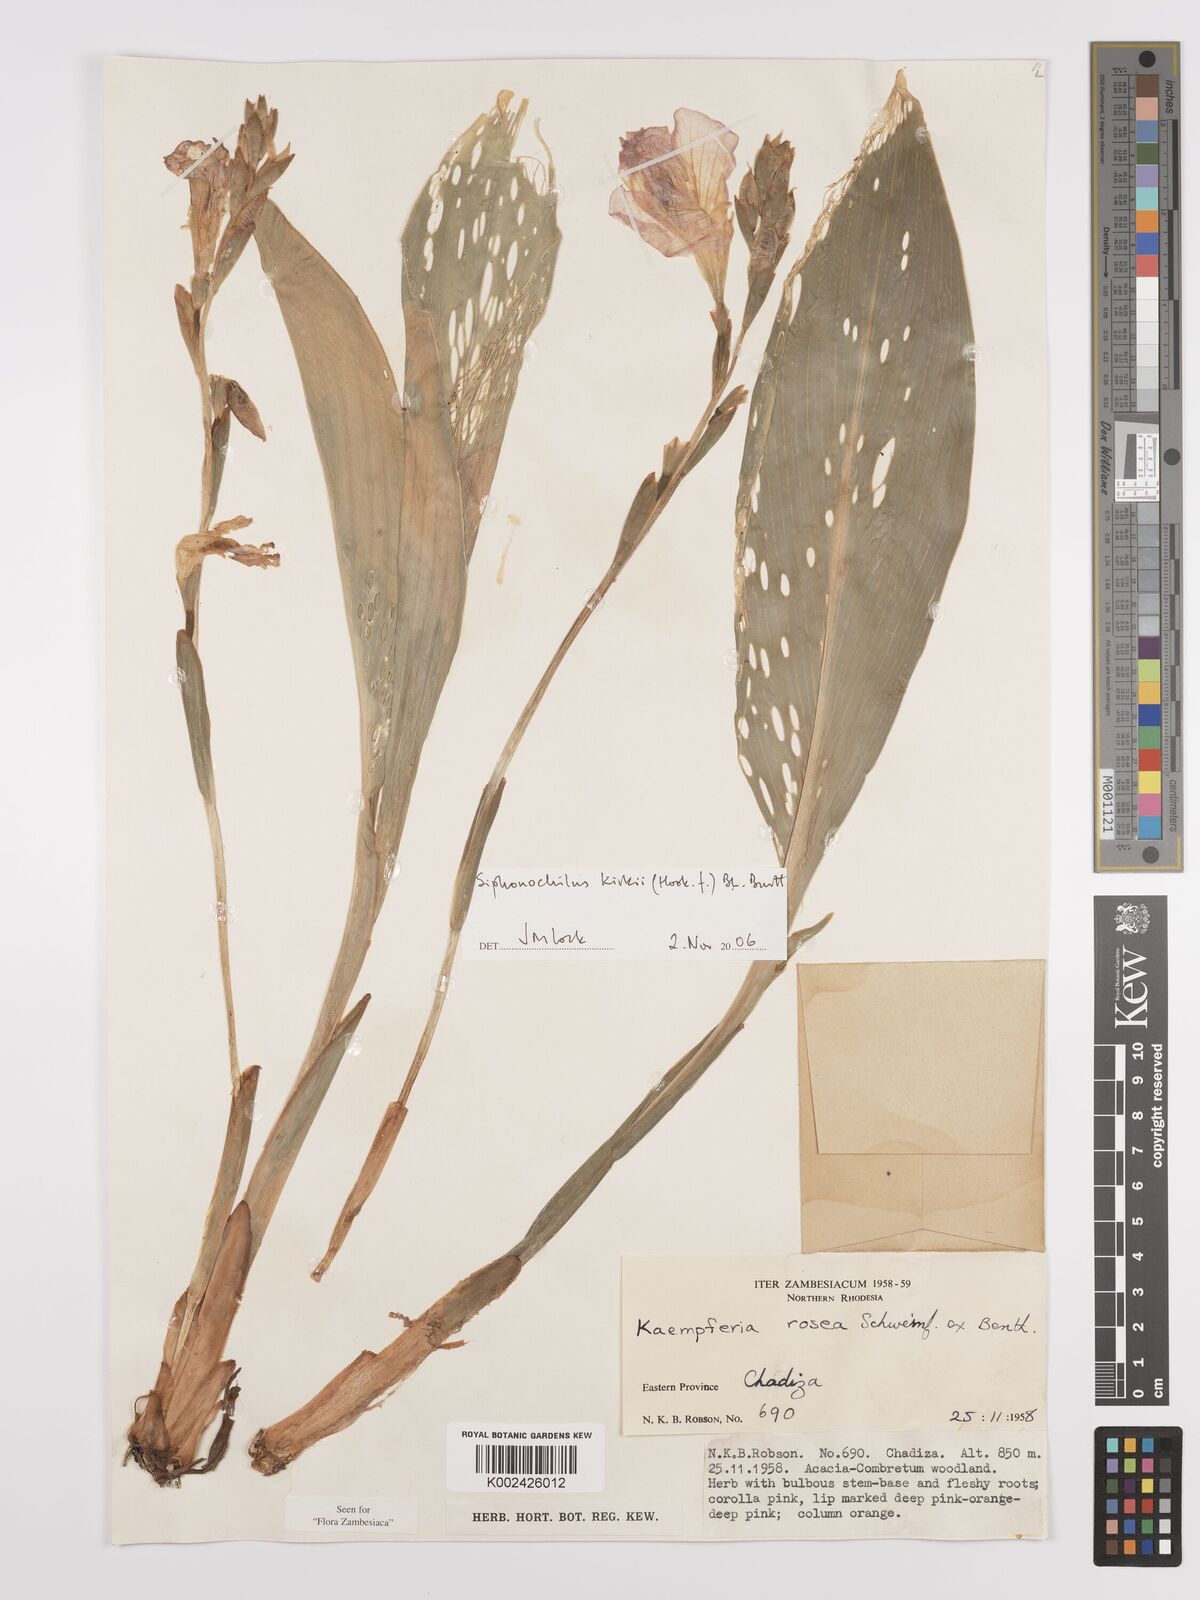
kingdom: Plantae
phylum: Tracheophyta
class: Liliopsida
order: Zingiberales
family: Zingiberaceae
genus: Siphonochilus
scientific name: Siphonochilus kirkii
